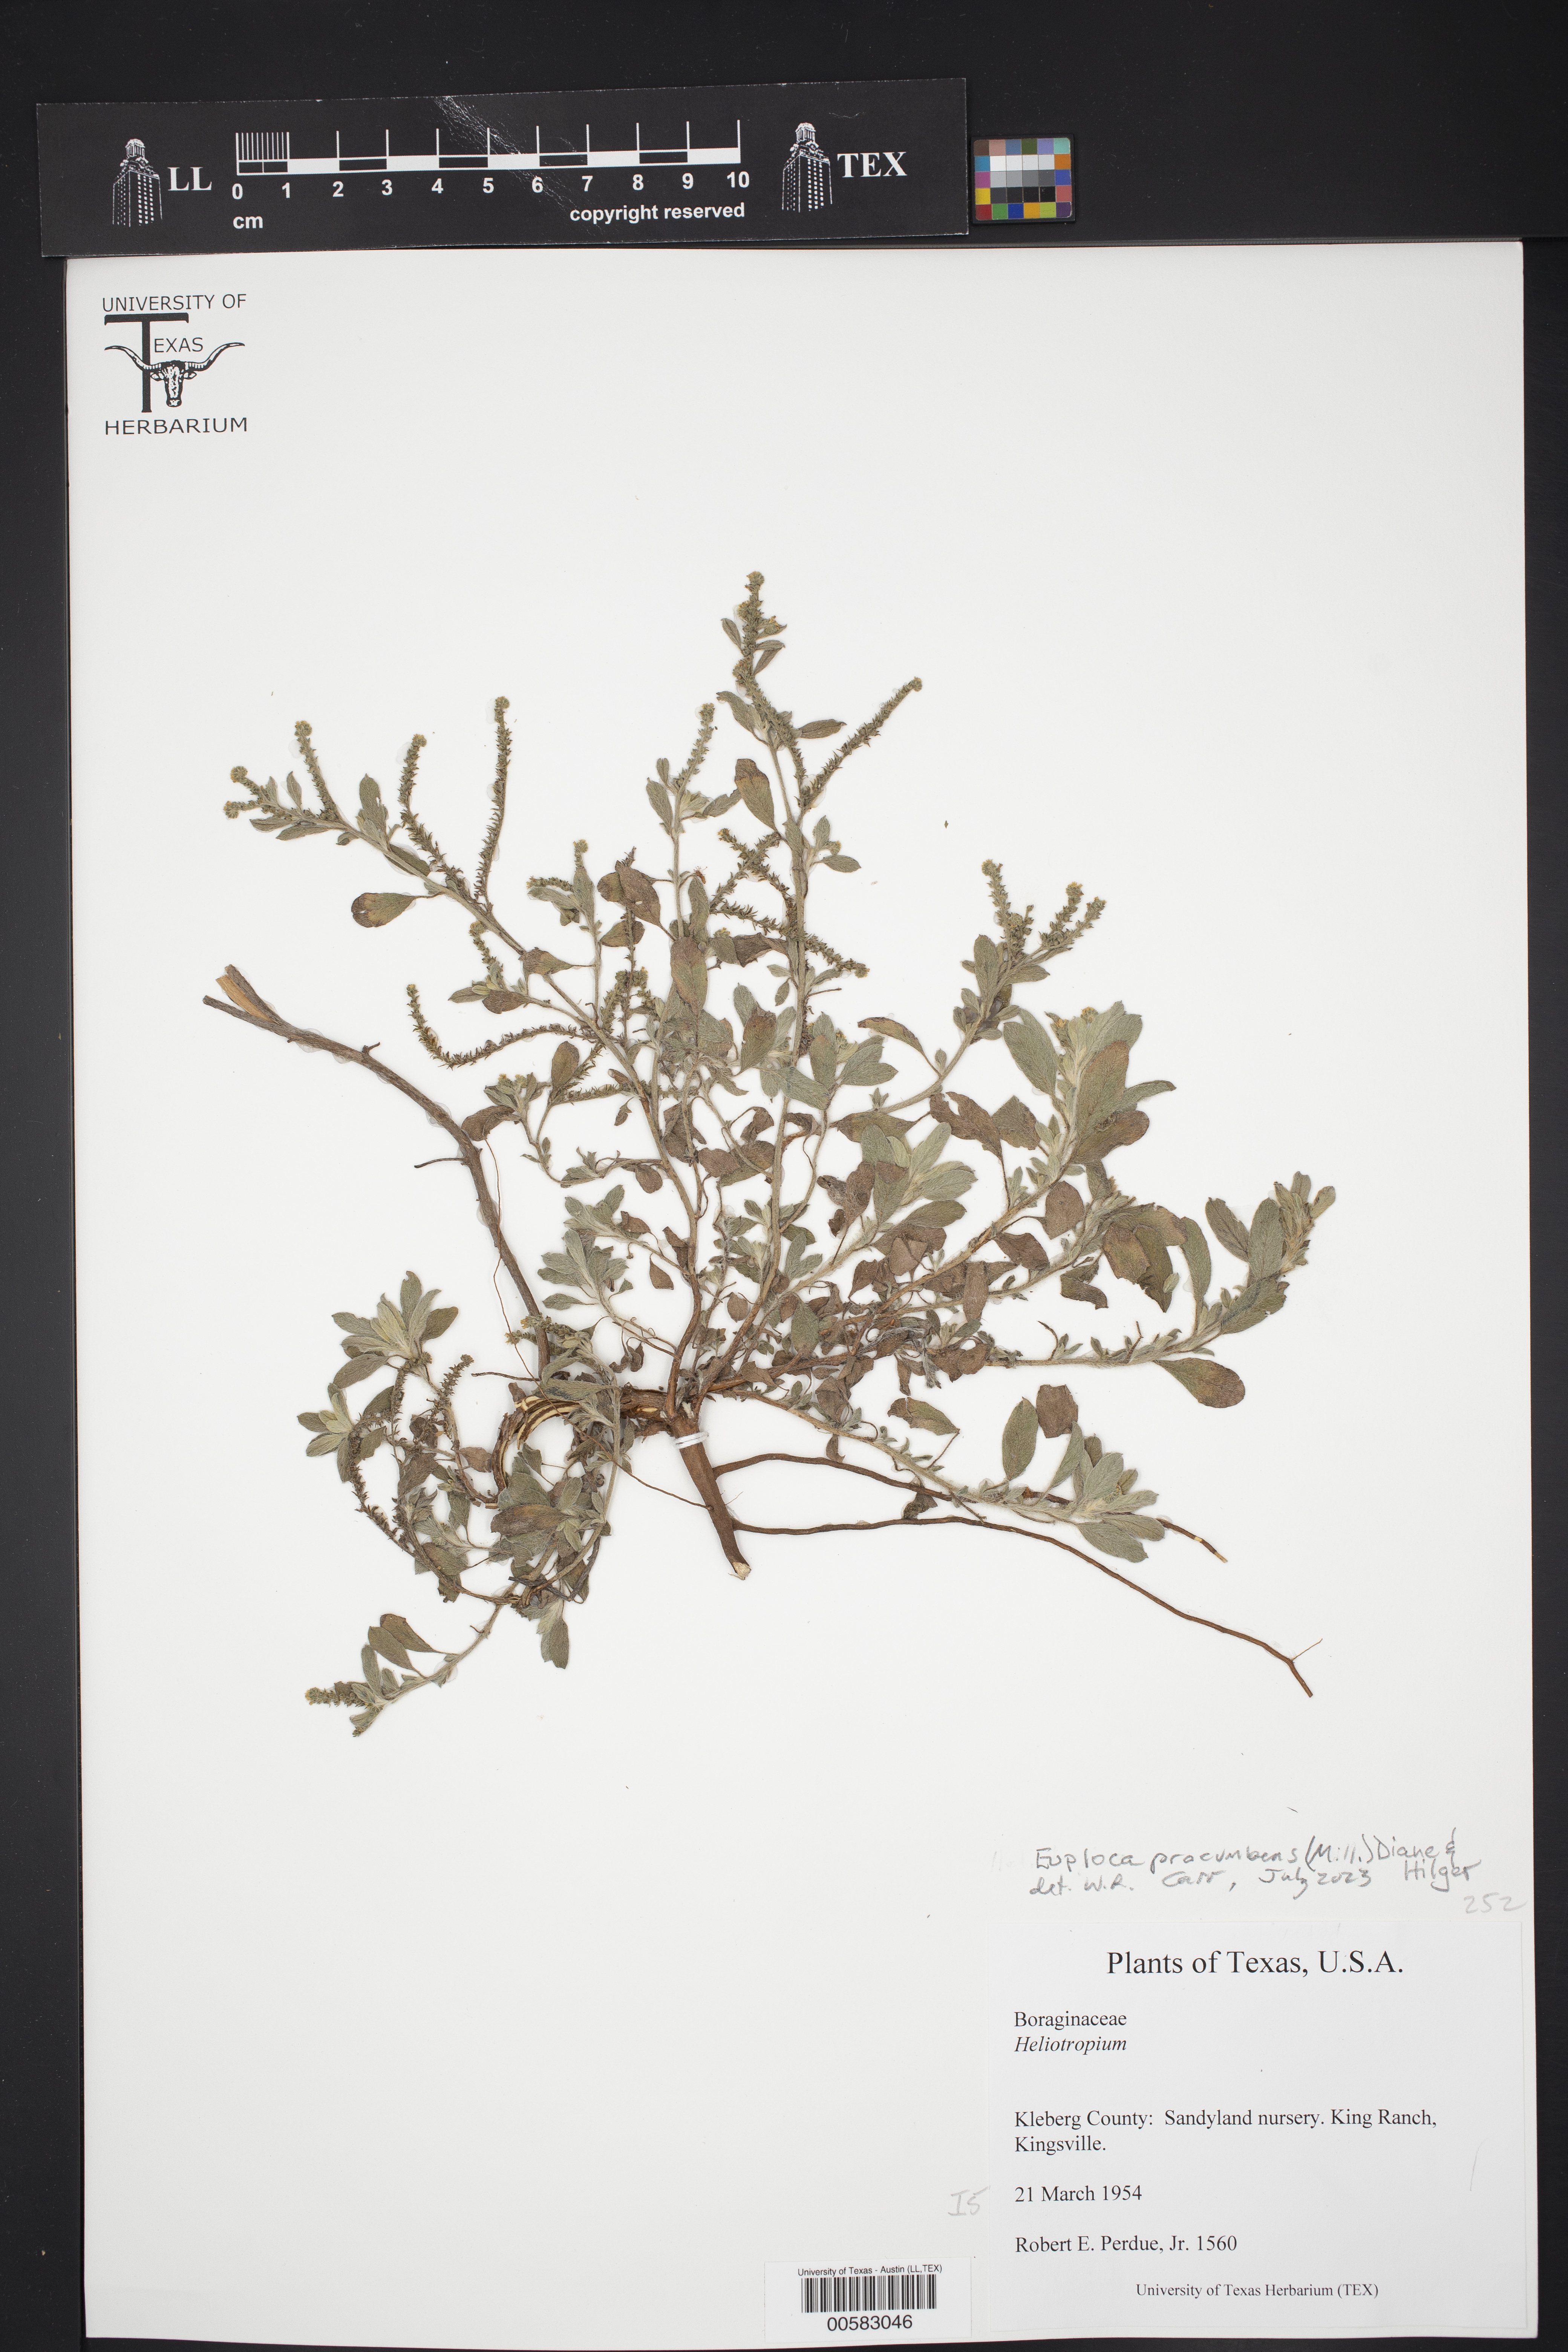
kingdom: Plantae
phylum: Tracheophyta
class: Magnoliopsida
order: Boraginales
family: Heliotropiaceae
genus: Euploca
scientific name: Euploca procumbens
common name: Fourspike heliotrope
